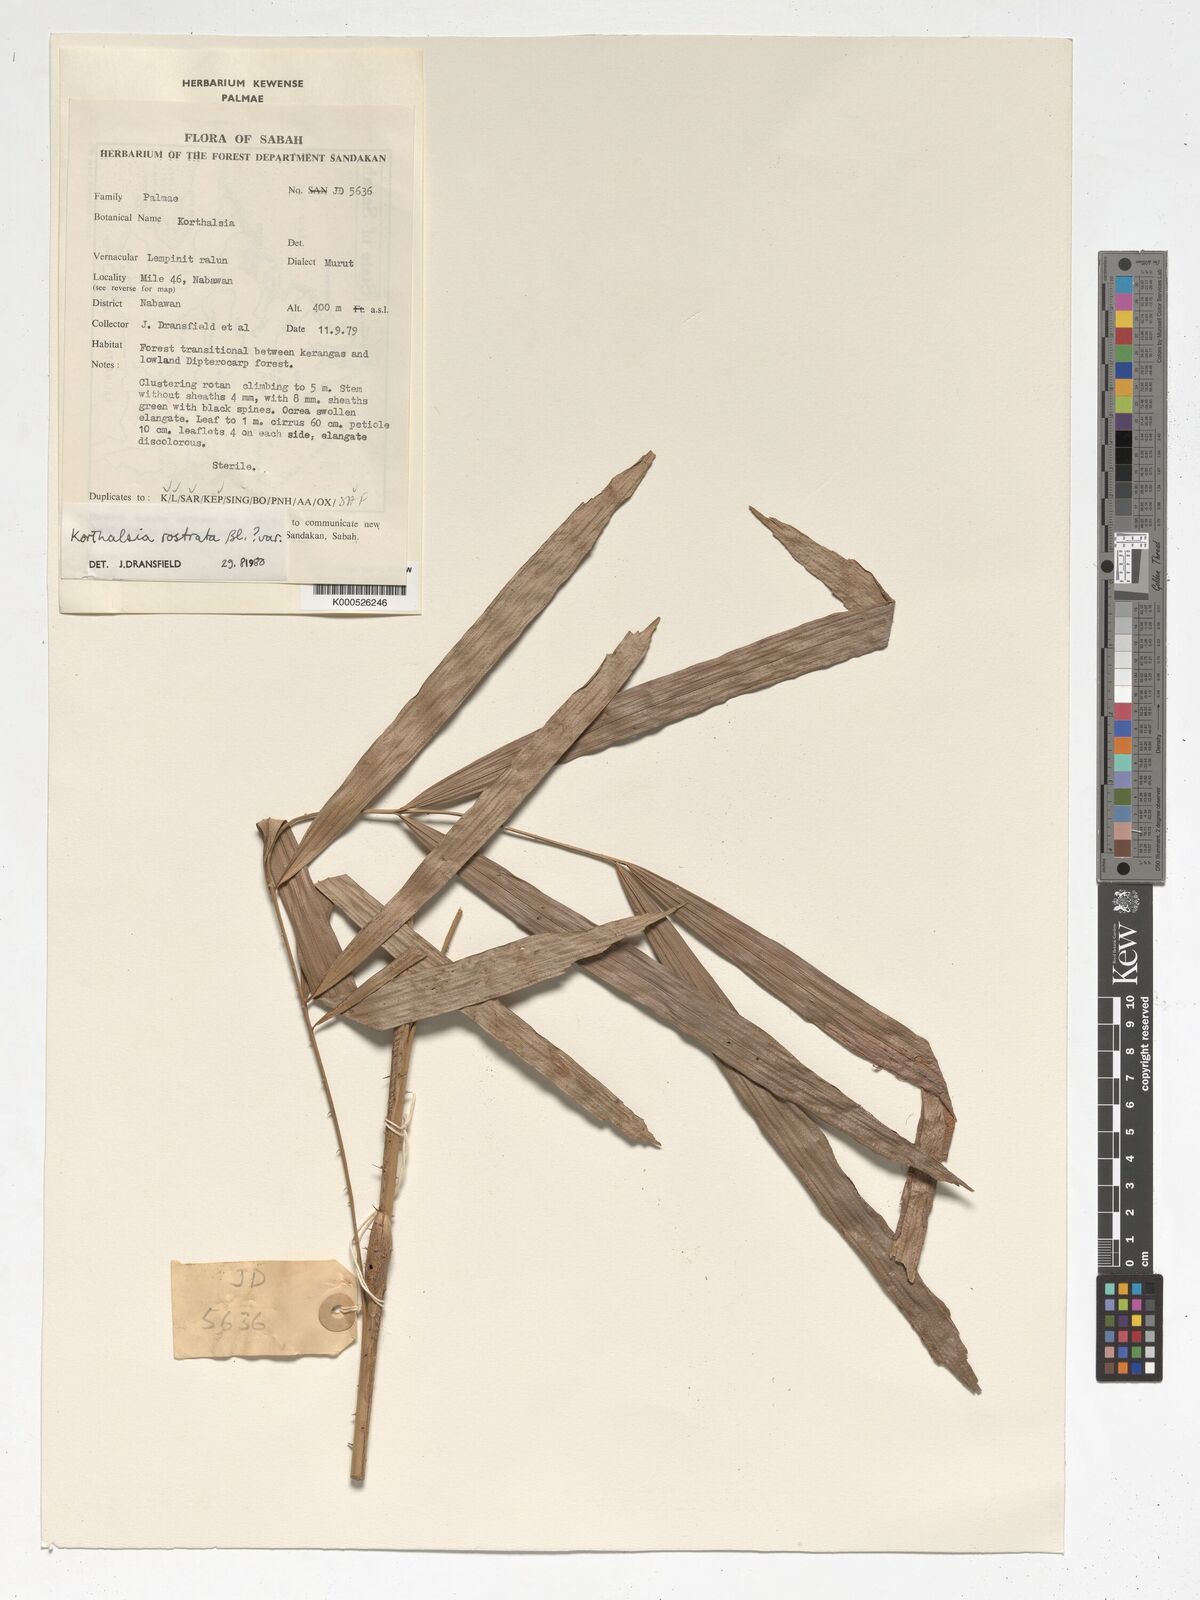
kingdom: Plantae
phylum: Tracheophyta
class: Liliopsida
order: Arecales
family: Arecaceae
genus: Korthalsia
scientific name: Korthalsia rostrata
